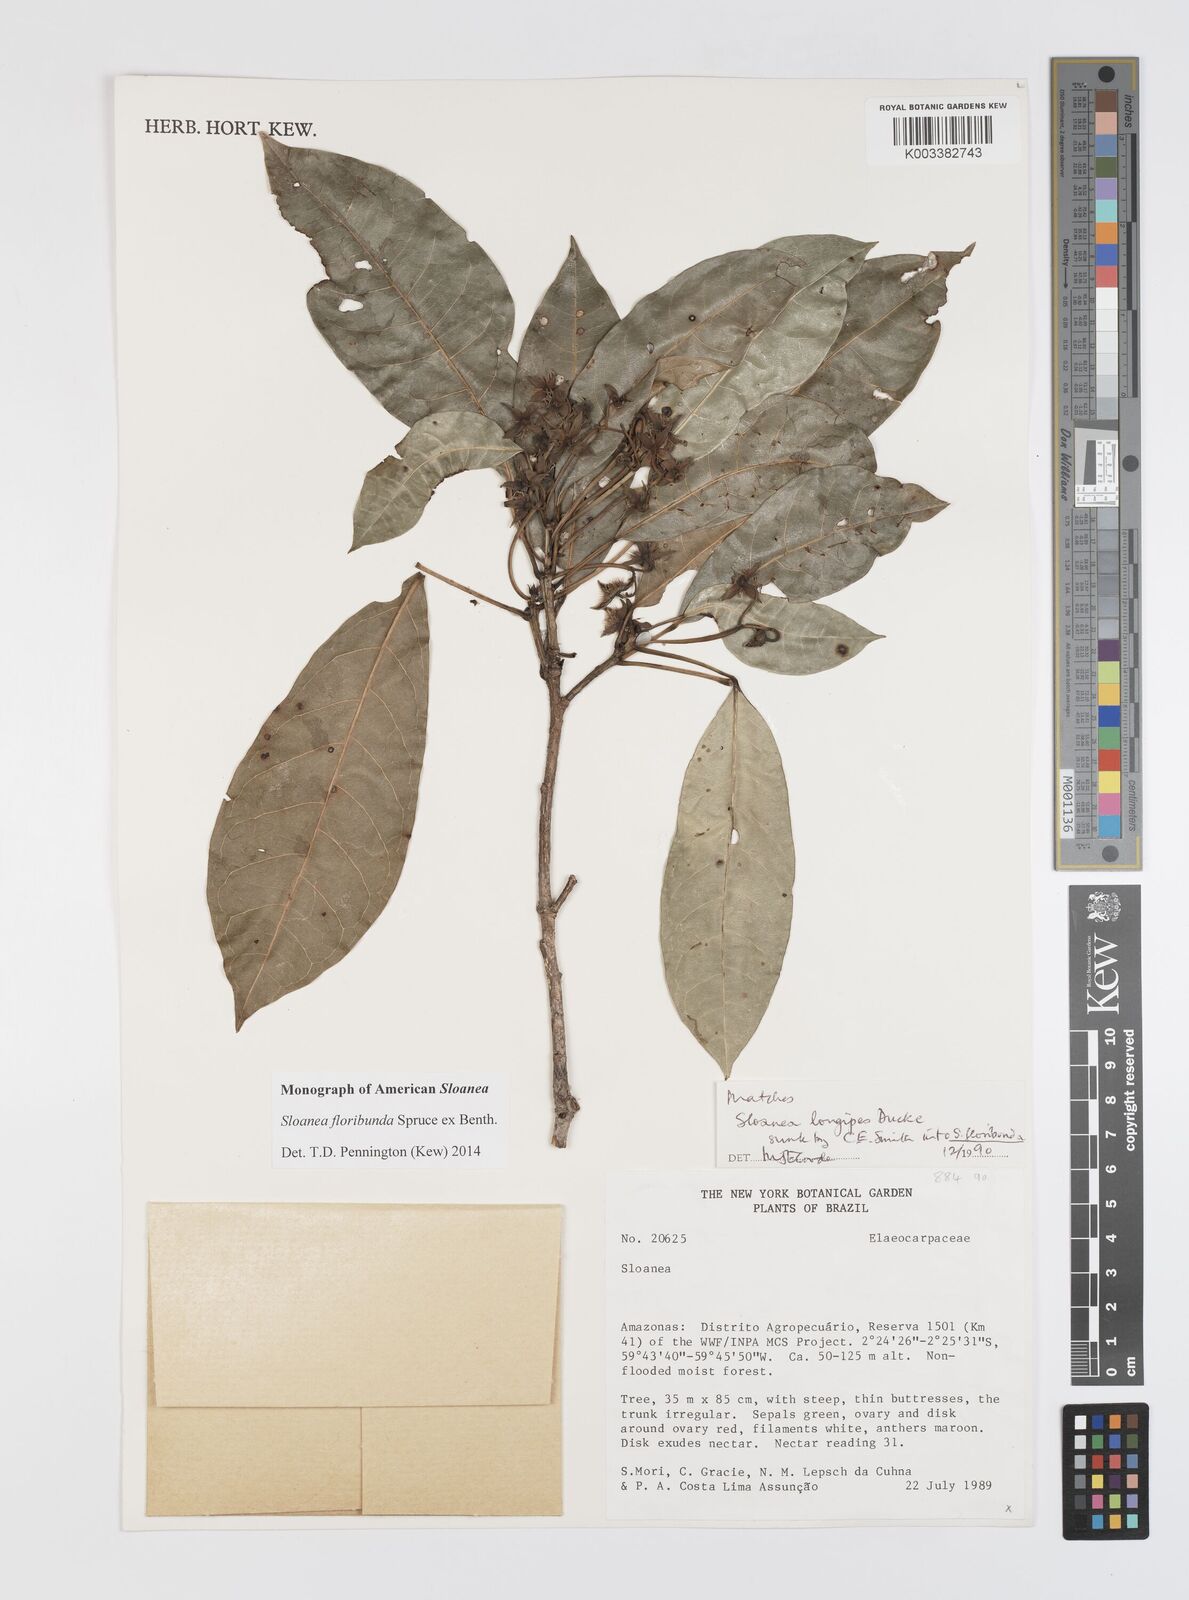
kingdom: Plantae
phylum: Tracheophyta
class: Magnoliopsida
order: Oxalidales
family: Elaeocarpaceae
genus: Sloanea
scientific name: Sloanea floribunda
